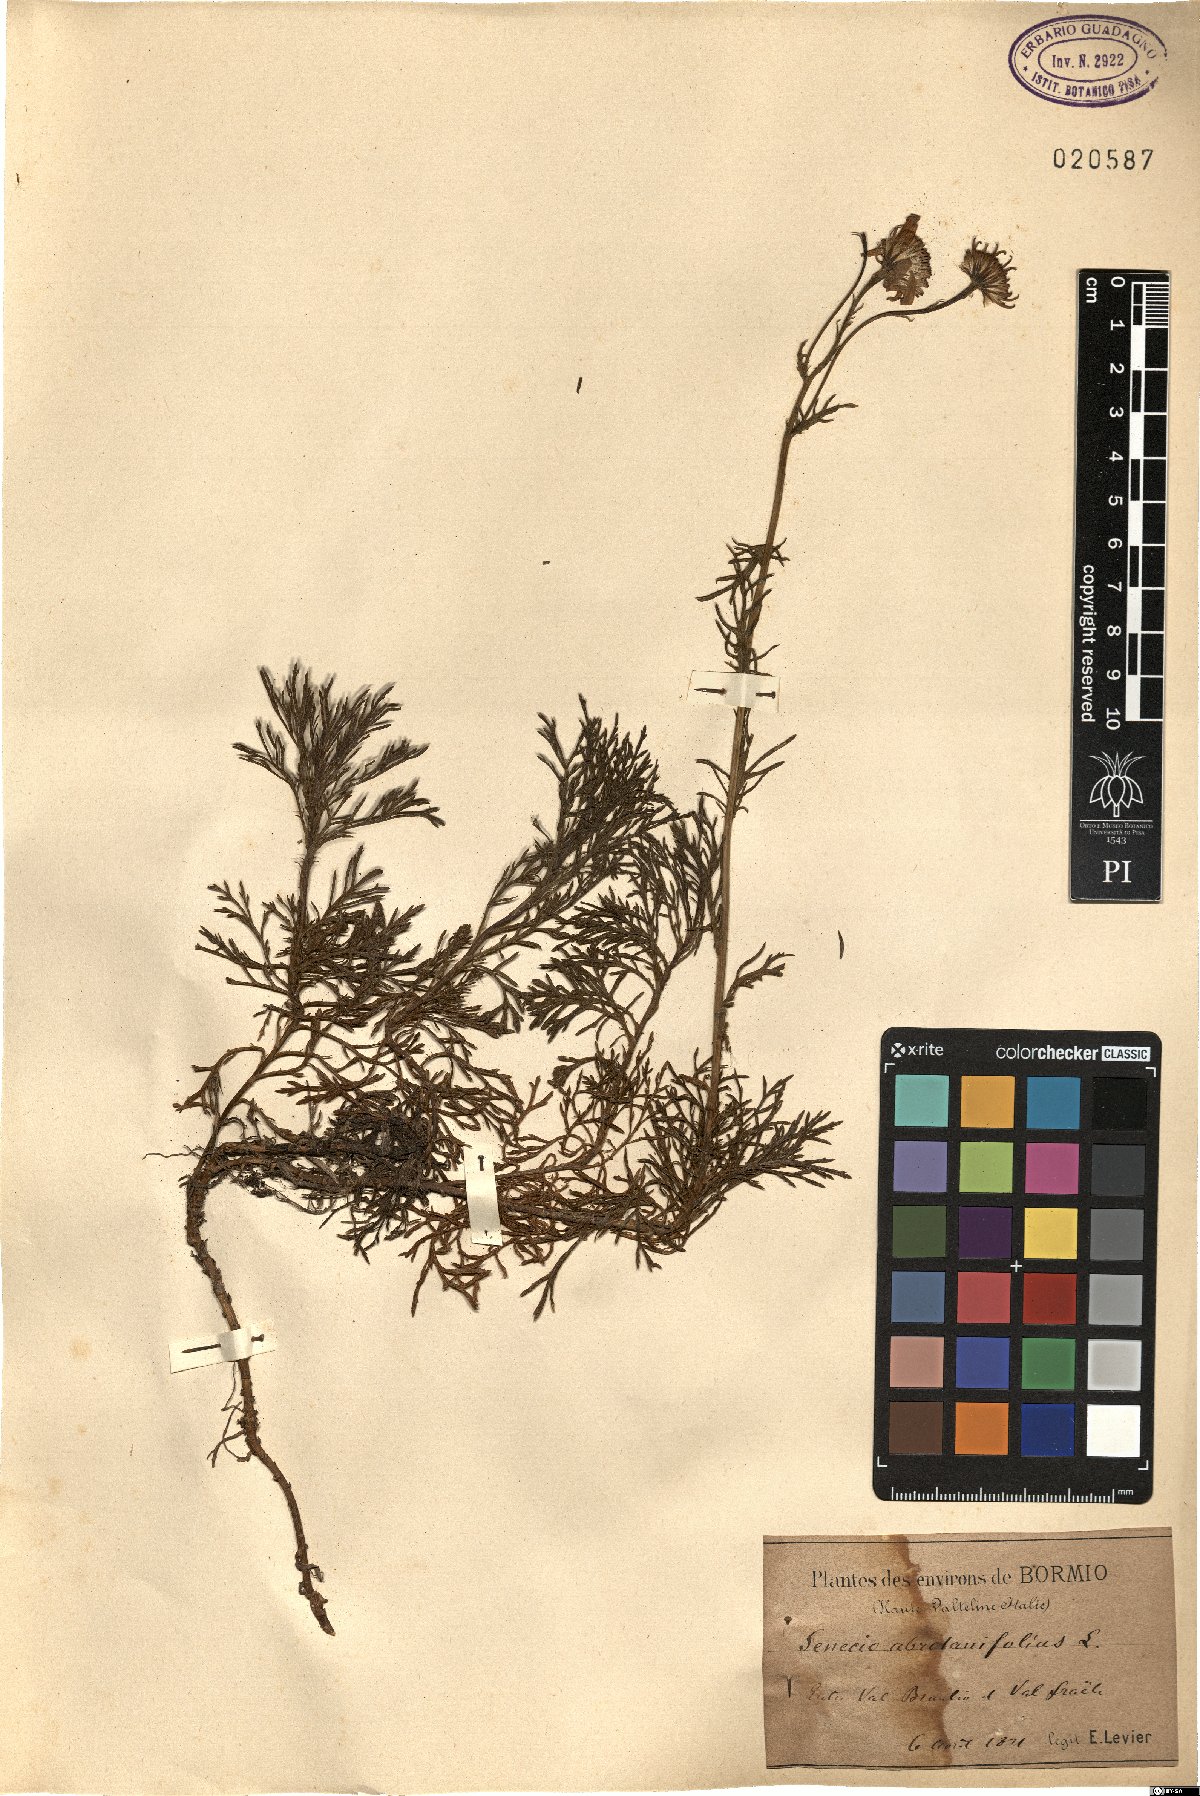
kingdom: Plantae
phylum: Tracheophyta
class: Magnoliopsida
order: Asterales
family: Asteraceae
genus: Jacobaea
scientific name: Jacobaea abrotanifolia
